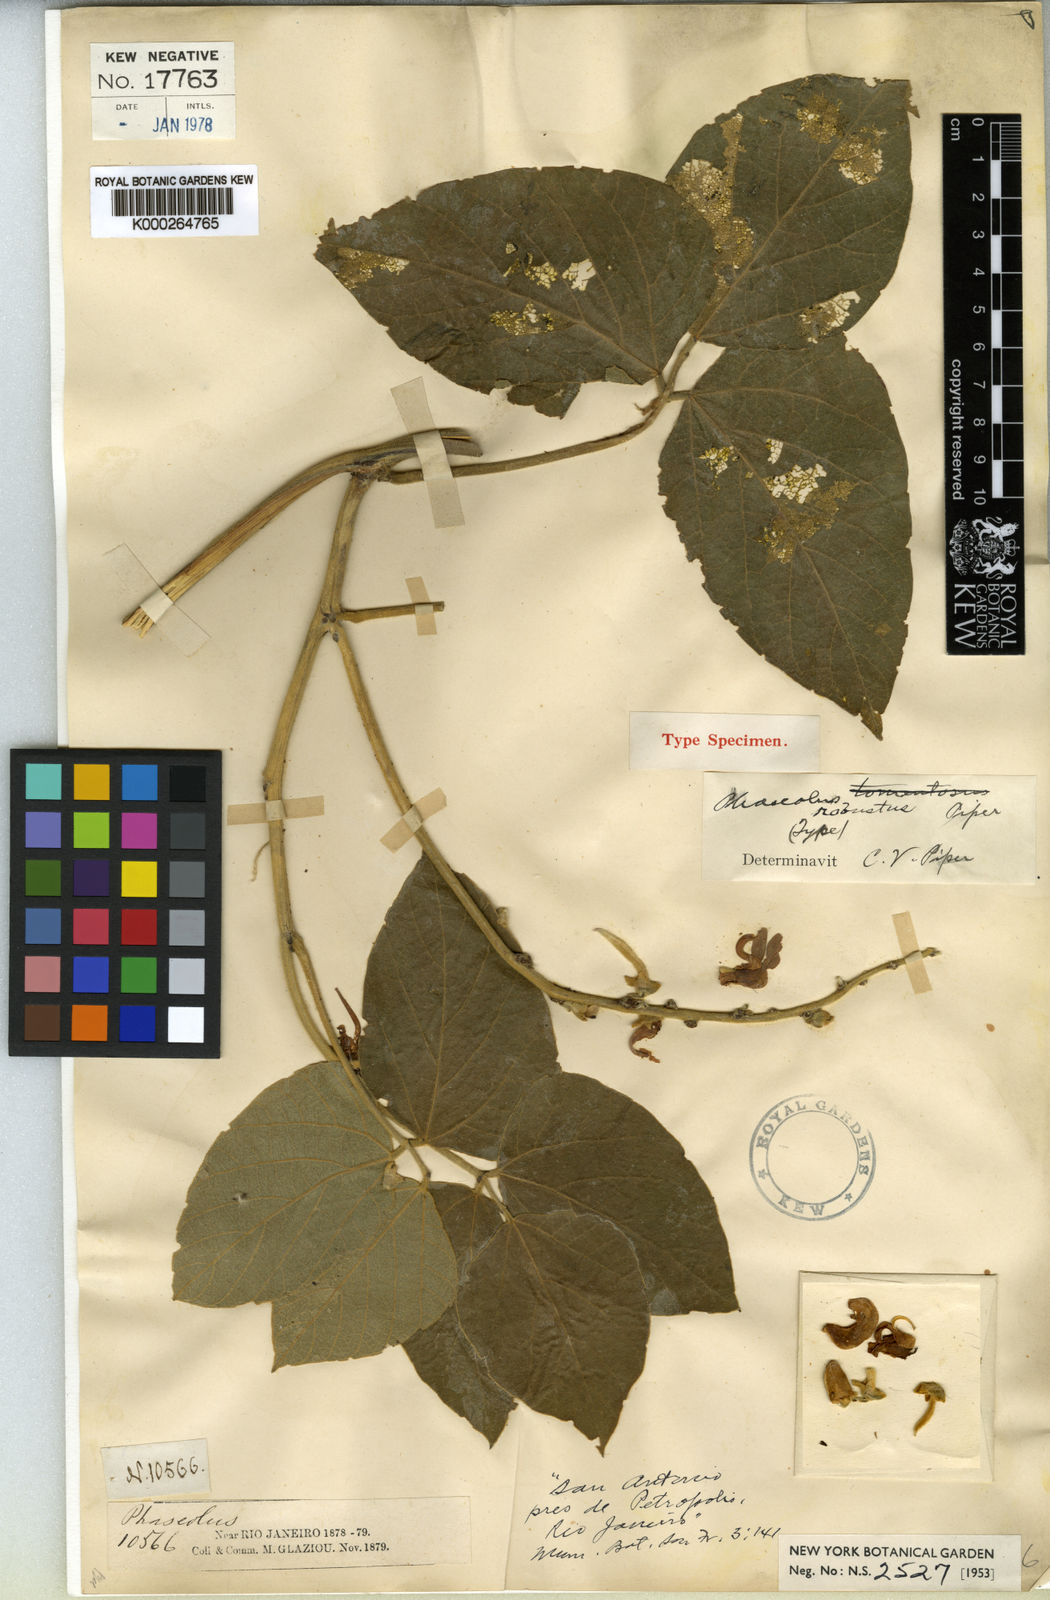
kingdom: Plantae
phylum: Tracheophyta
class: Magnoliopsida
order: Fabales
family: Fabaceae
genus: Ancistrotropis
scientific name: Ancistrotropis robusta
